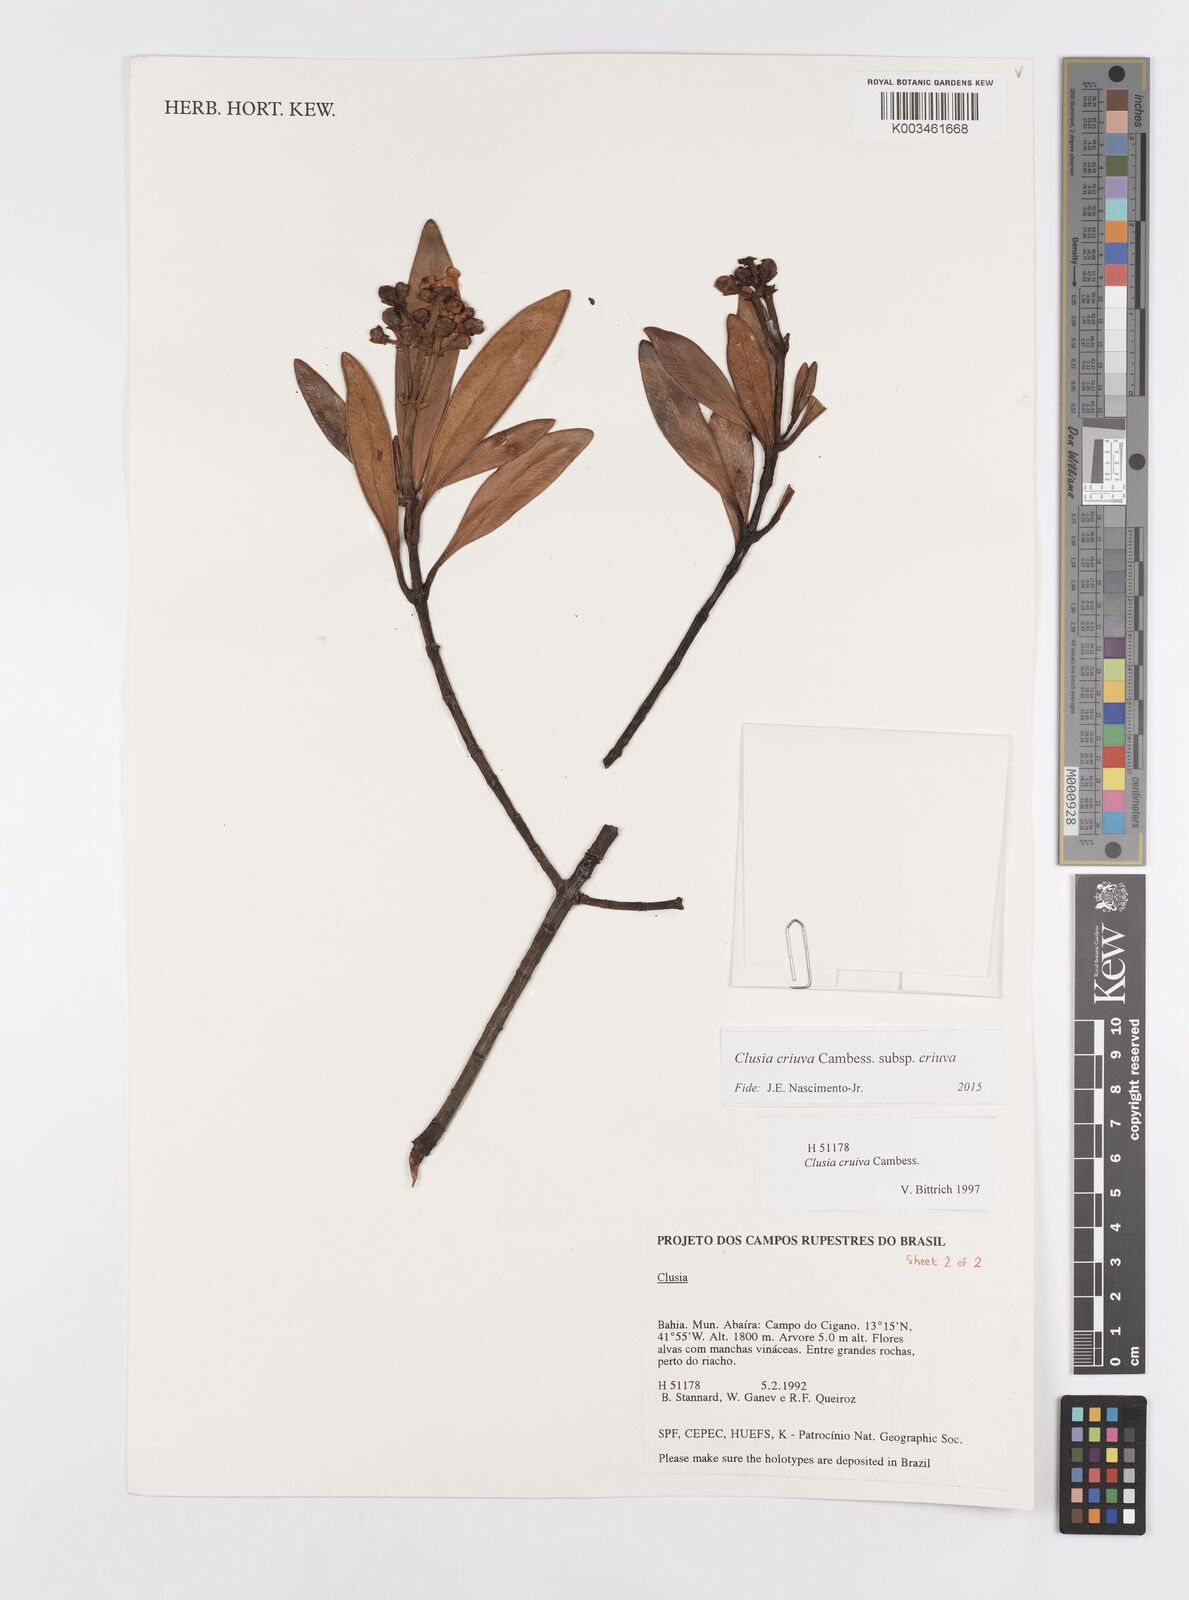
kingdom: Plantae
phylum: Tracheophyta
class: Magnoliopsida
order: Malpighiales
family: Clusiaceae
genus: Clusia
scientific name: Clusia criuva
